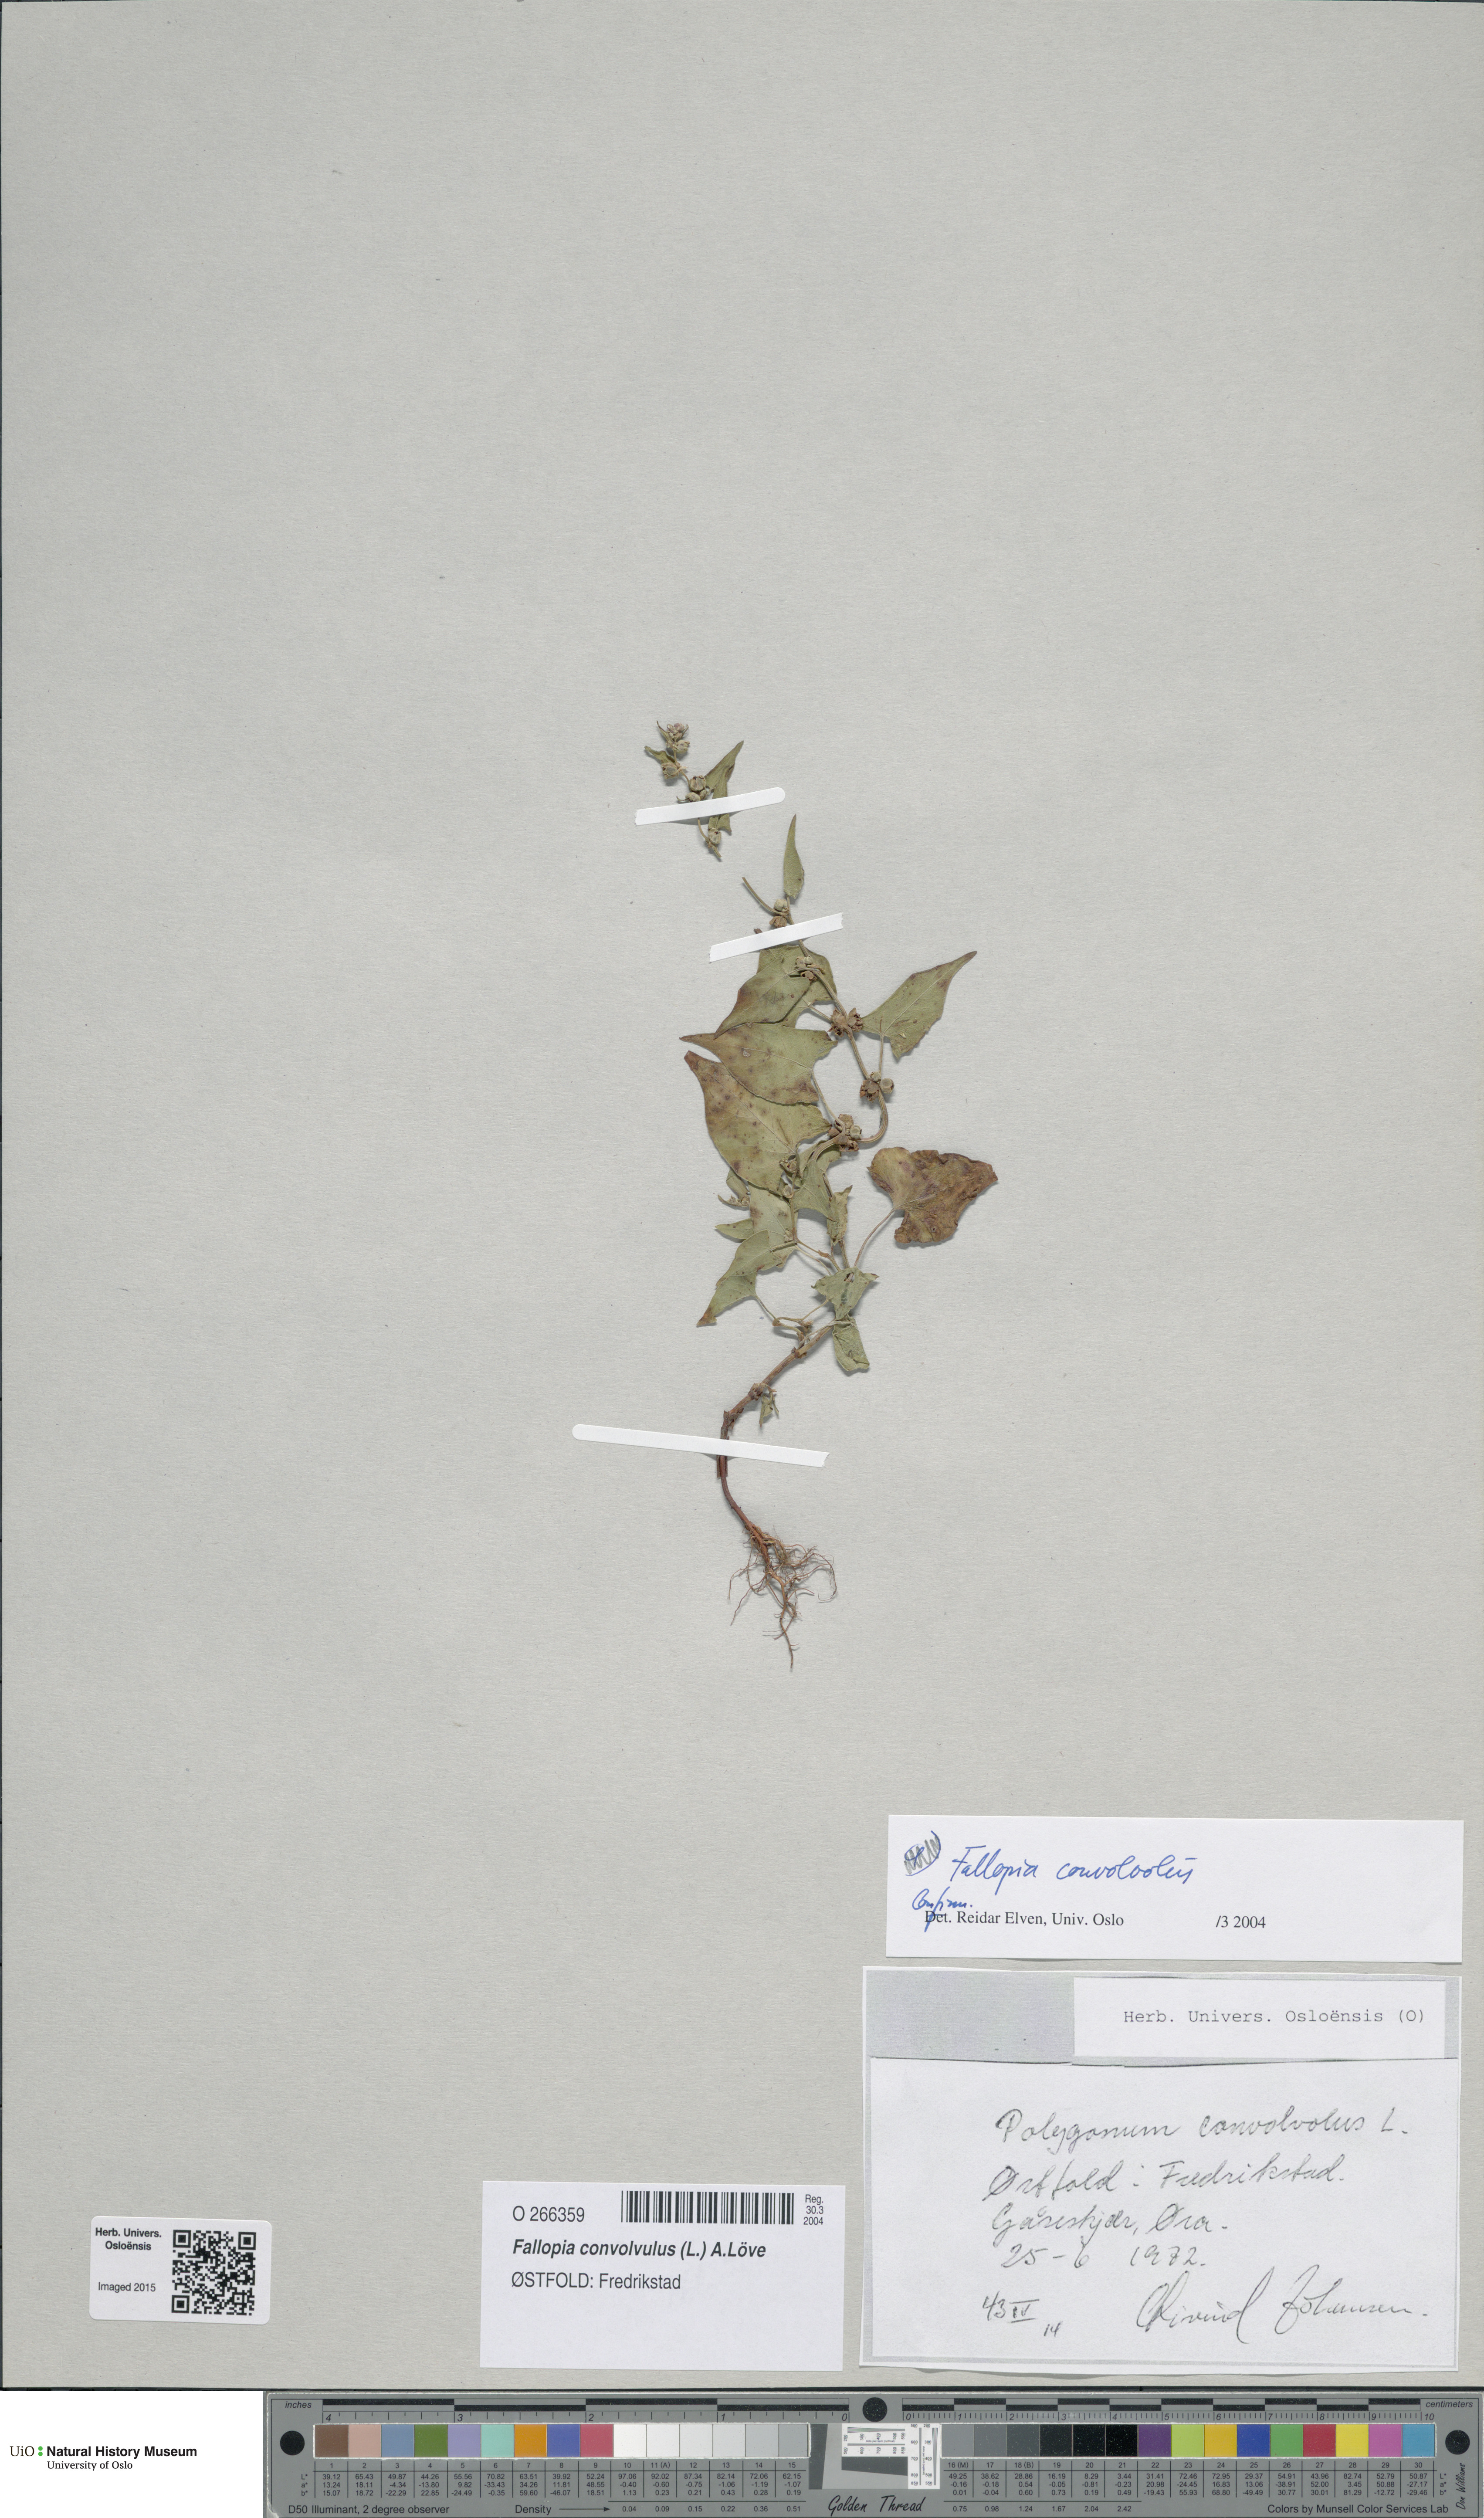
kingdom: Plantae
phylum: Tracheophyta
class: Magnoliopsida
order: Caryophyllales
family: Polygonaceae
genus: Fallopia
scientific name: Fallopia convolvulus
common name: Black bindweed
